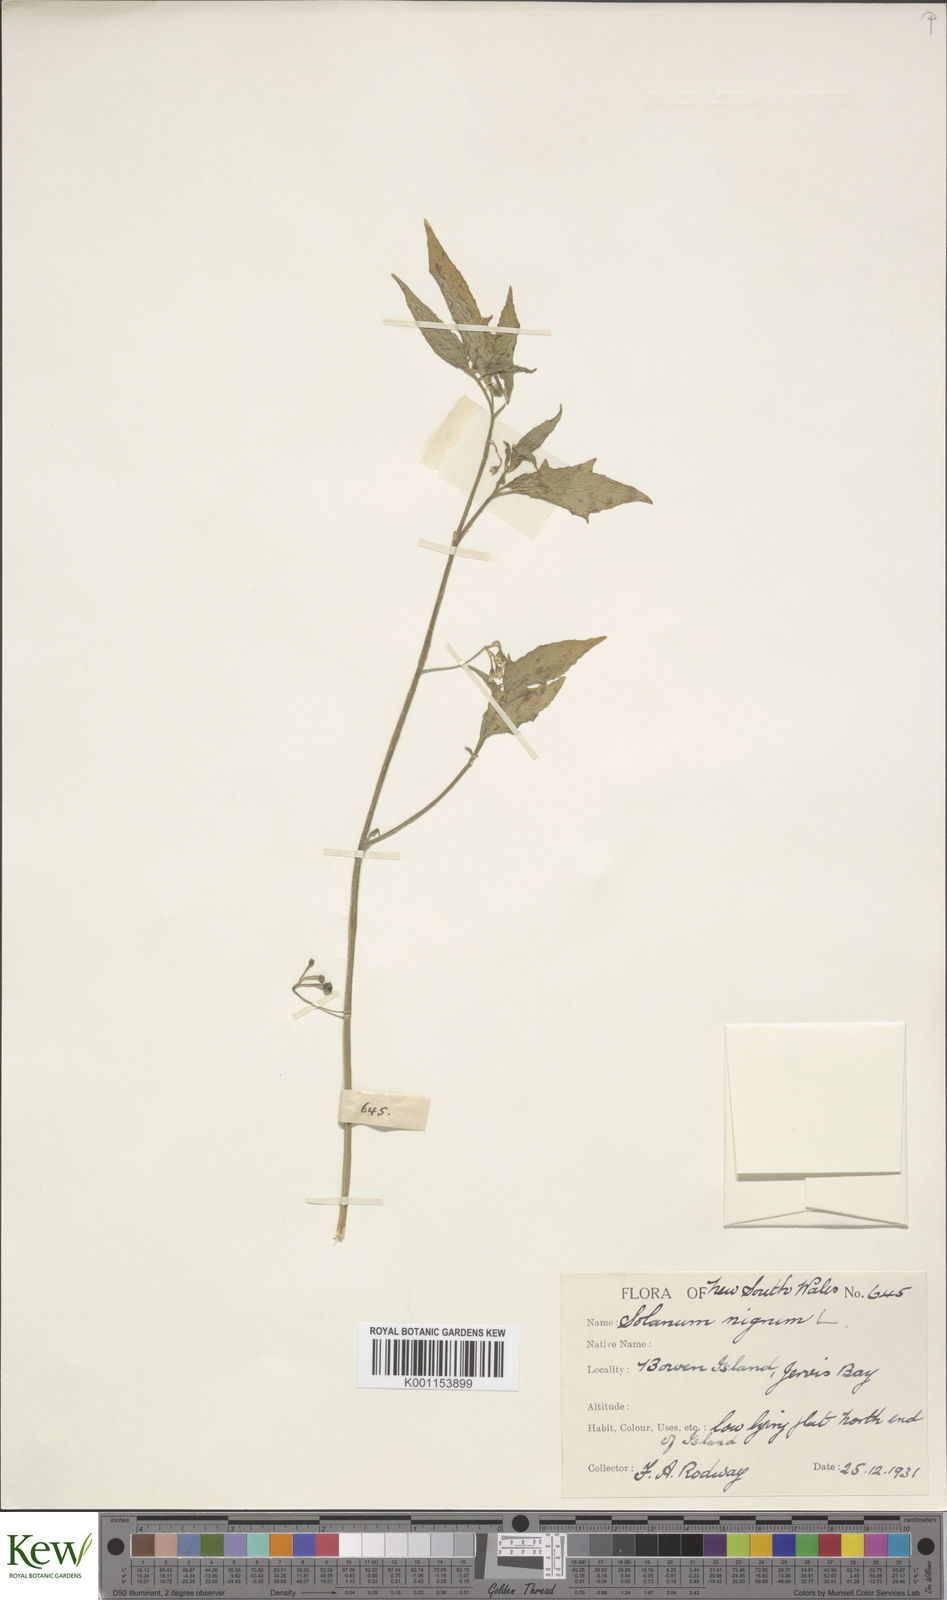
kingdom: Plantae
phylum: Tracheophyta
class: Magnoliopsida
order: Solanales
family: Solanaceae
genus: Solanum
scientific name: Solanum
